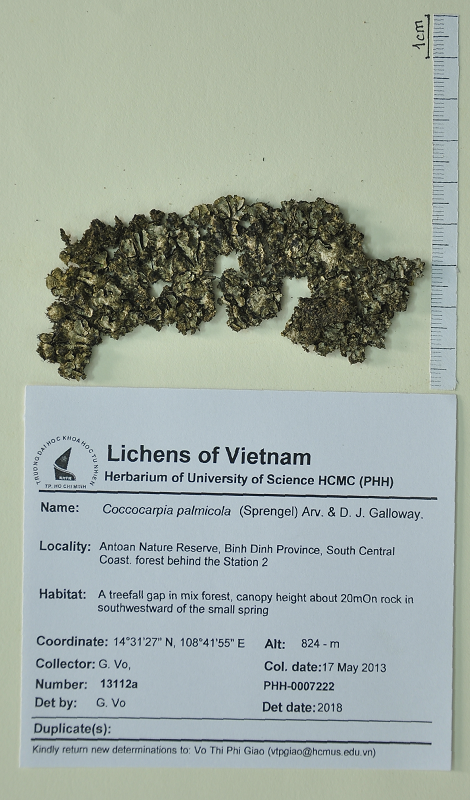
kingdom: Fungi
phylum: Ascomycota
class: Lecanoromycetes
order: Peltigerales
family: Coccocarpiaceae
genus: Coccocarpia
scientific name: Coccocarpia palmicola
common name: Salted shell lichen
